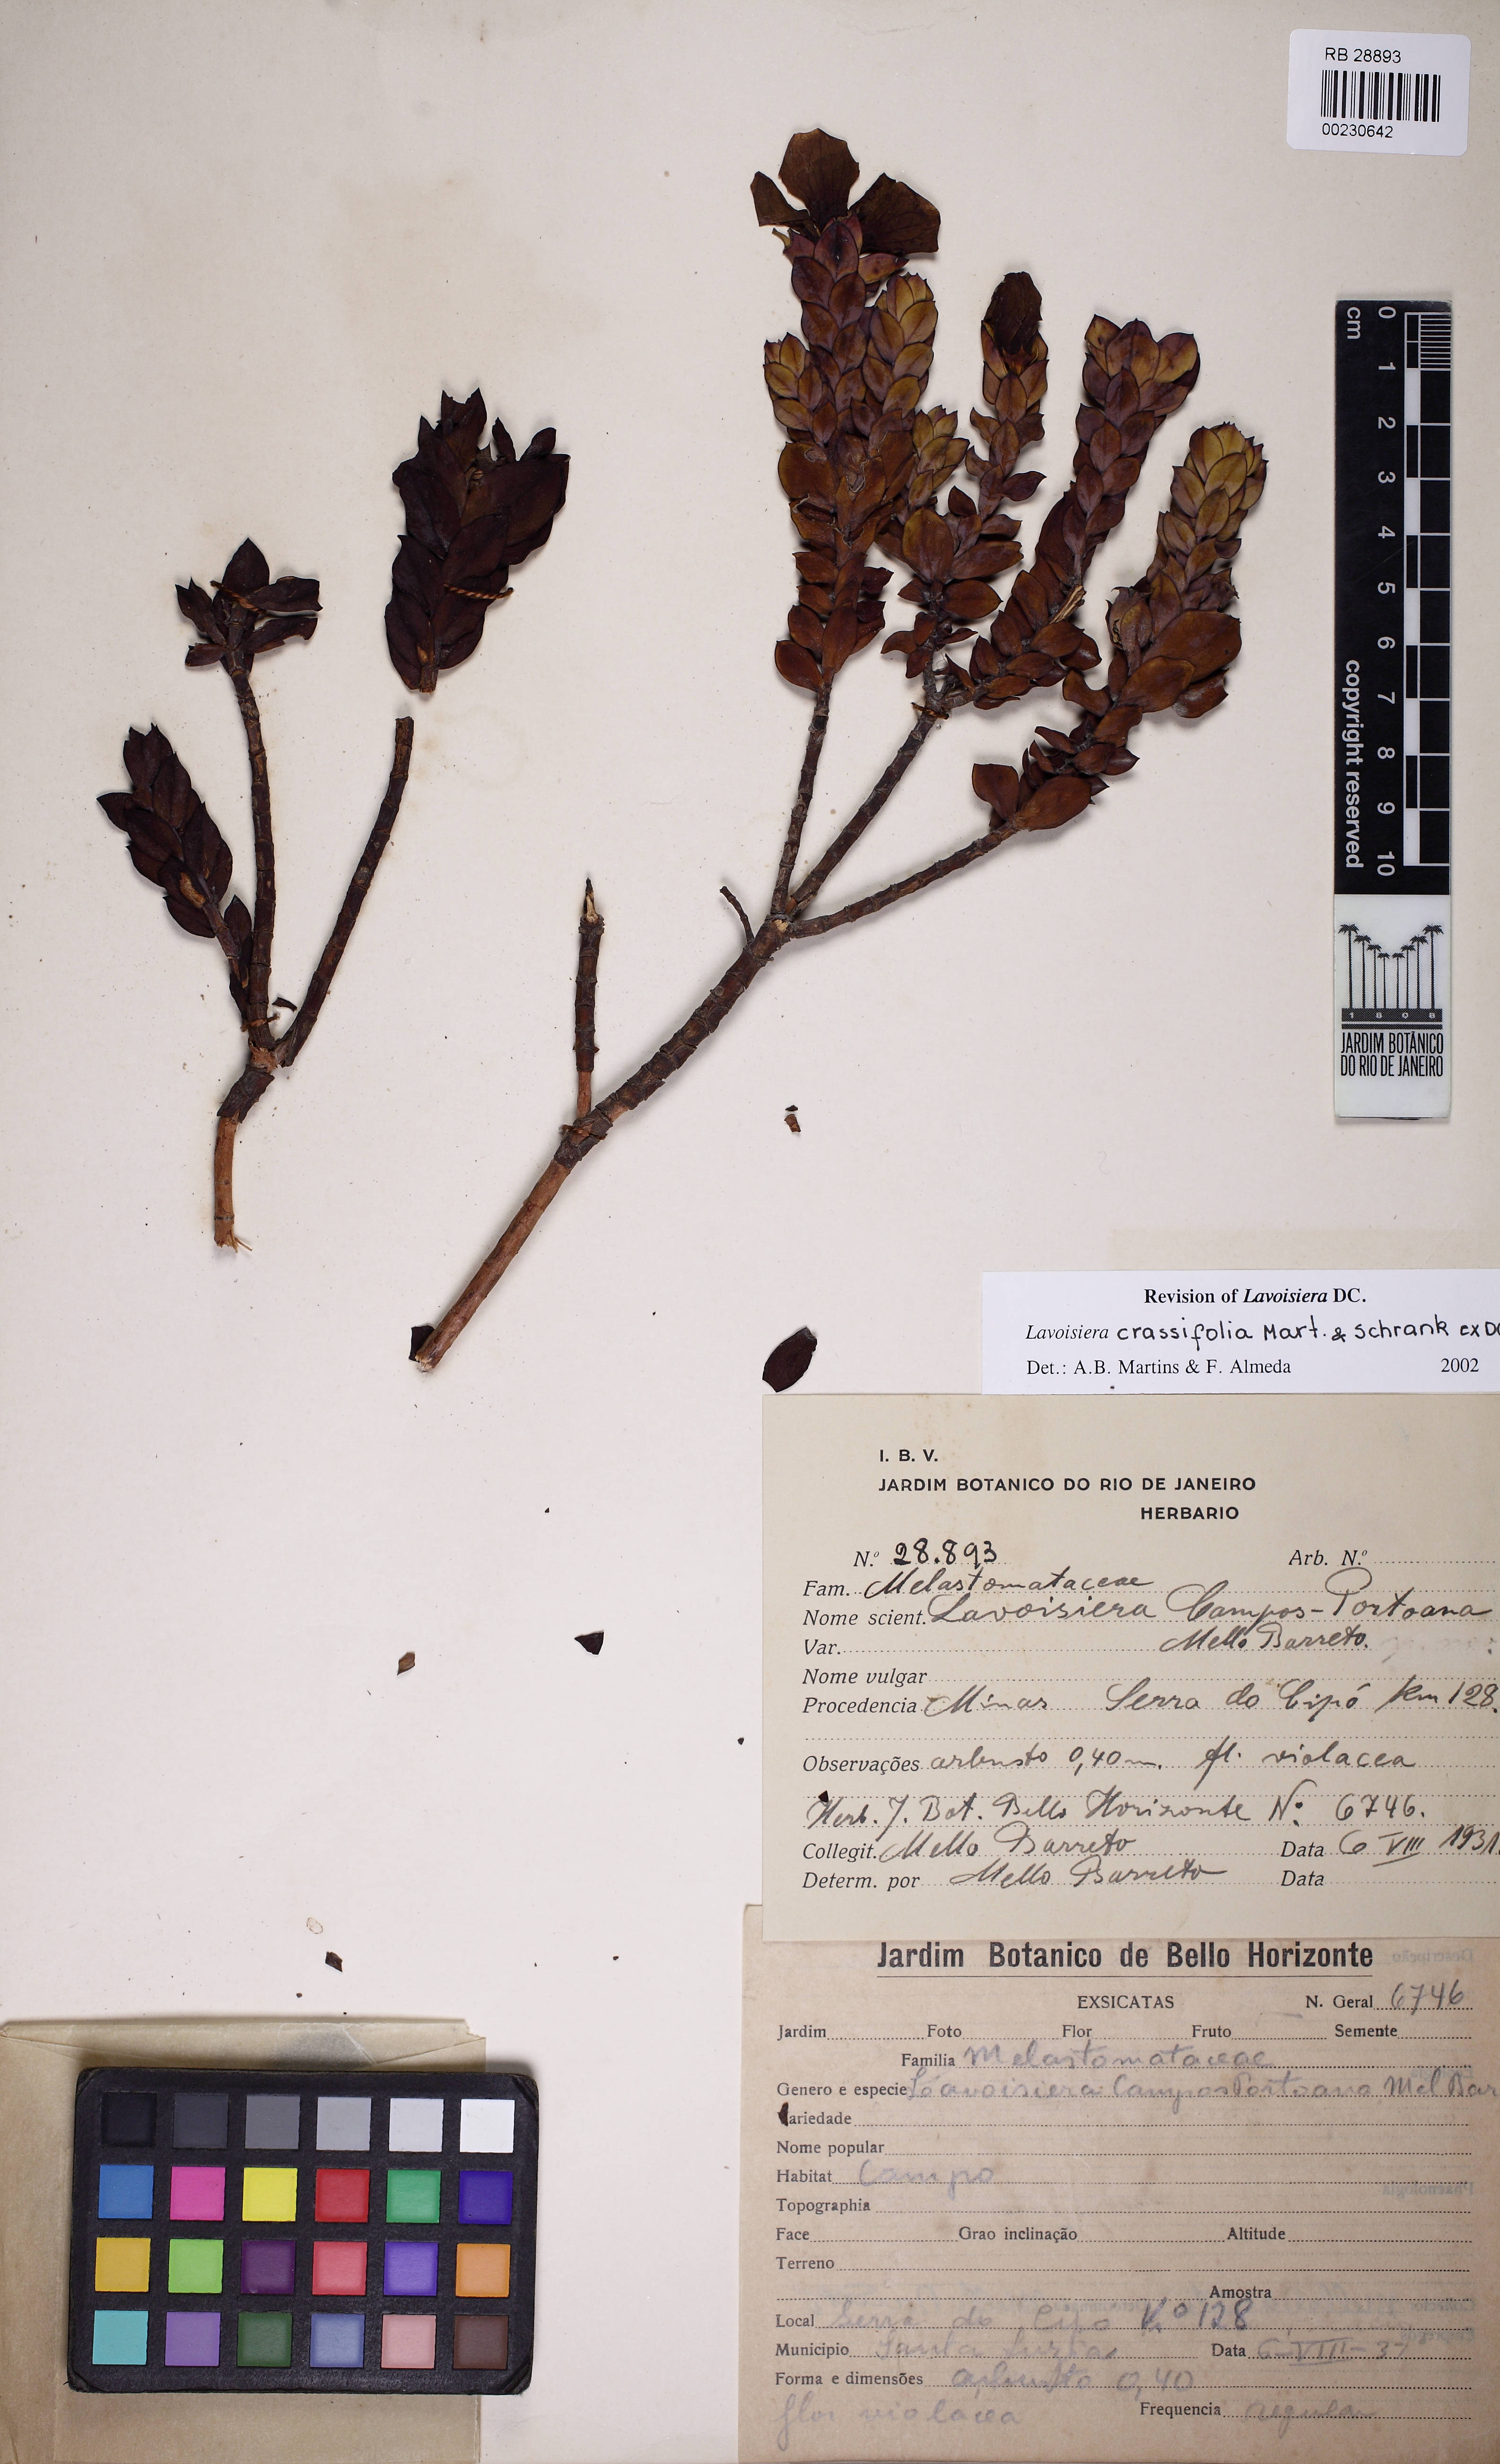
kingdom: Plantae
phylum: Tracheophyta
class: Magnoliopsida
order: Myrtales
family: Melastomataceae
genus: Microlicia
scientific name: Microlicia crassifolia
